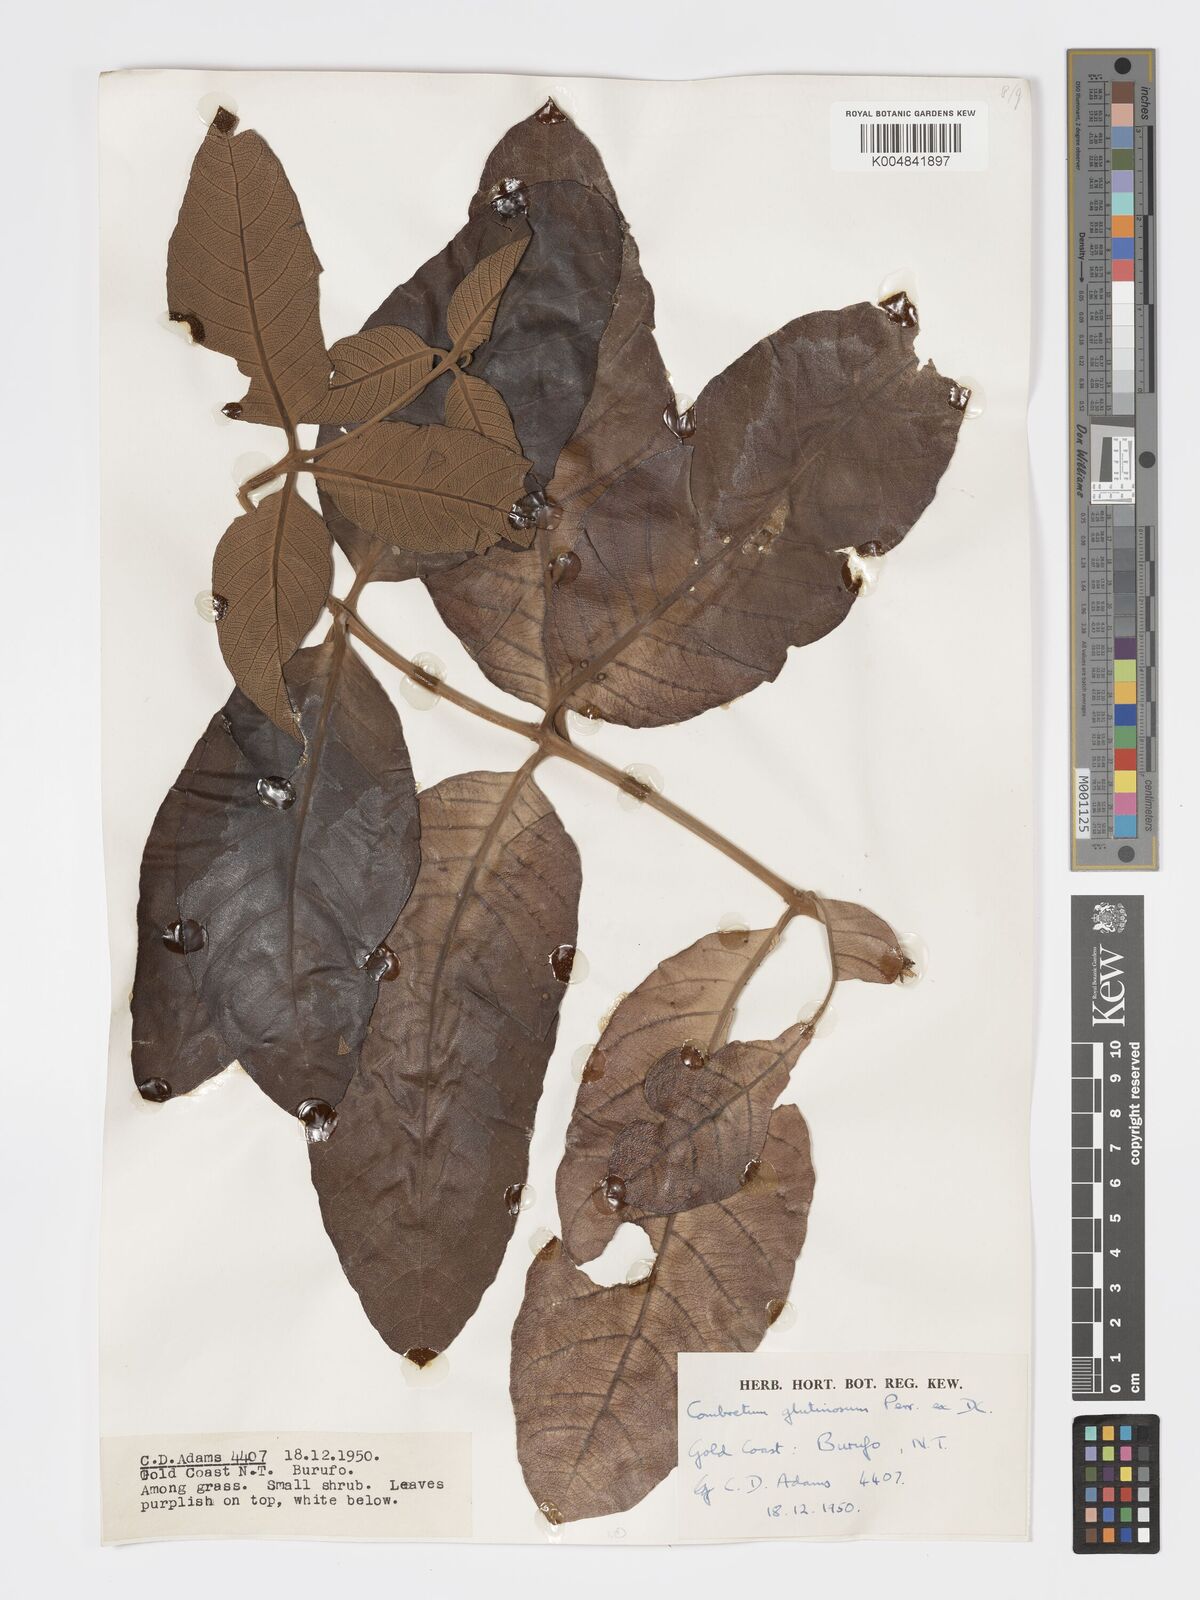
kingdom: Plantae
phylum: Tracheophyta
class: Magnoliopsida
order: Myrtales
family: Combretaceae
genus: Combretum
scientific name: Combretum
